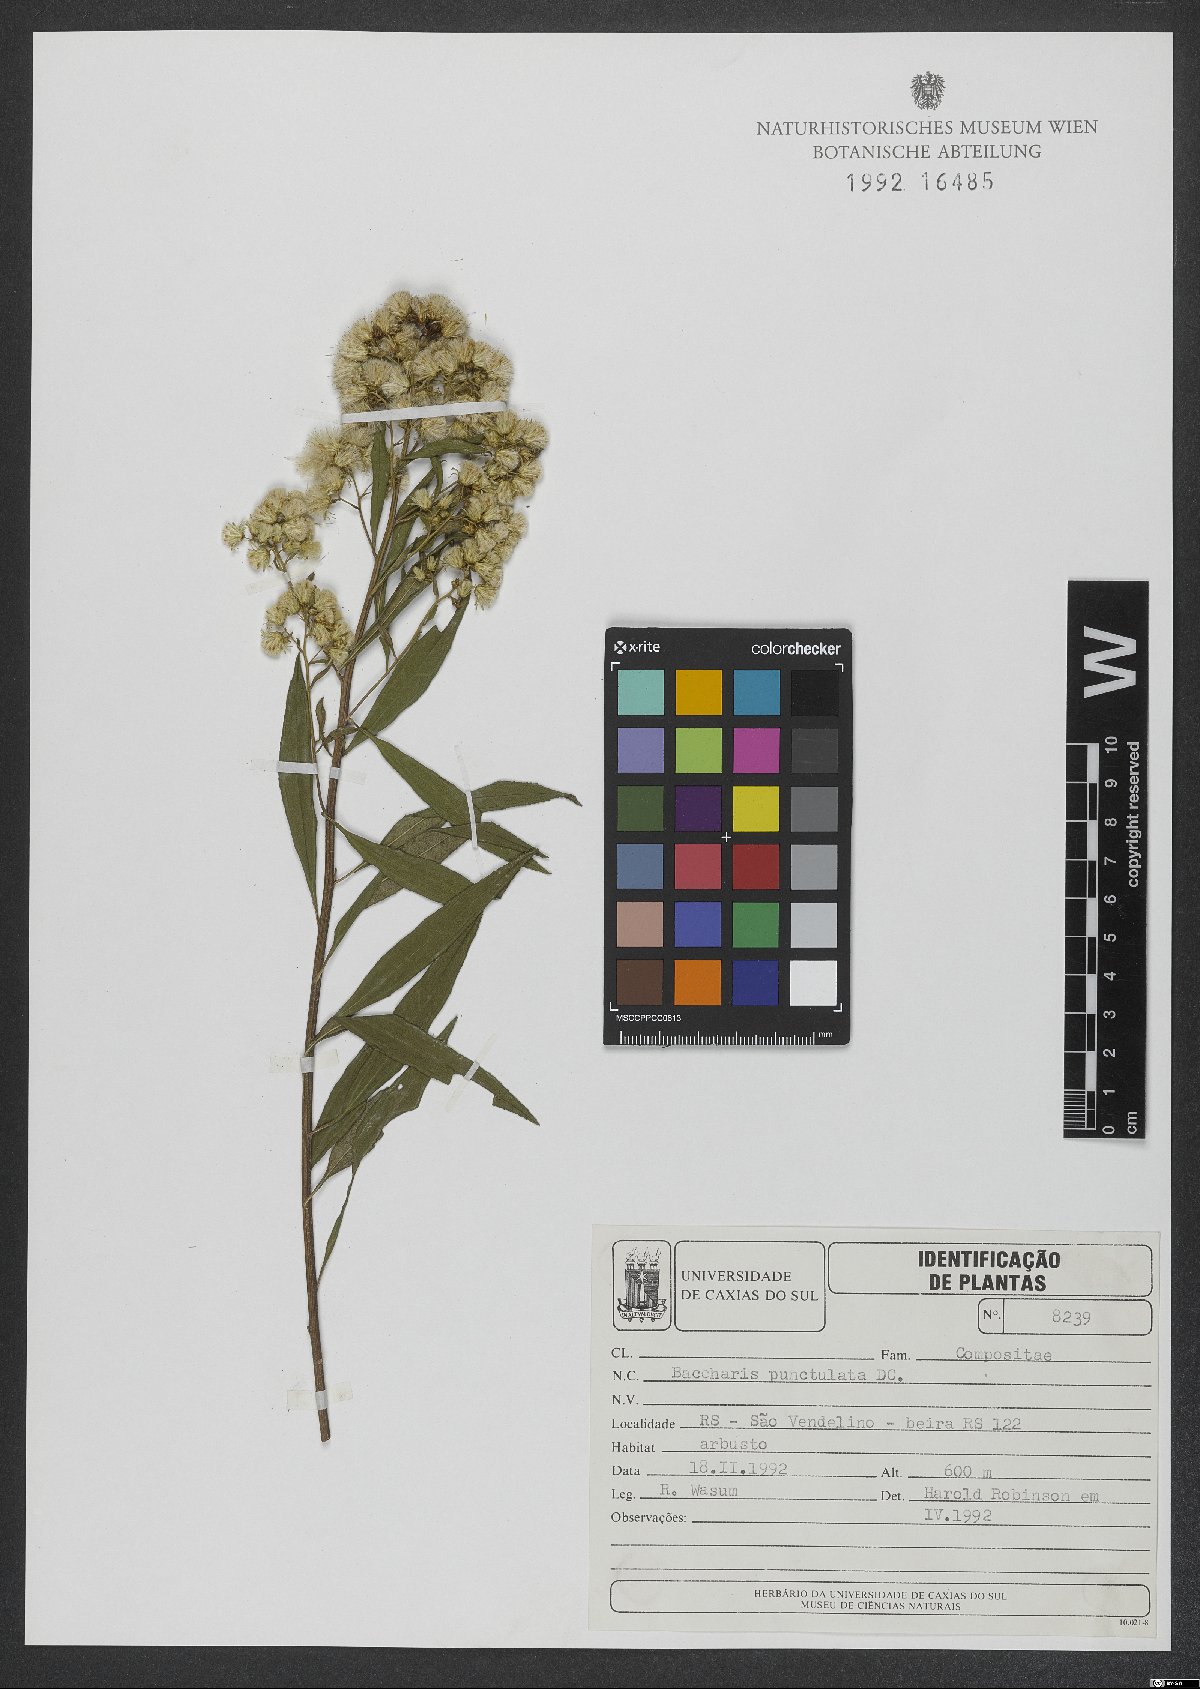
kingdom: Plantae
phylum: Tracheophyta
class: Magnoliopsida
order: Asterales
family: Asteraceae
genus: Baccharis
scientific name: Baccharis punctulata
